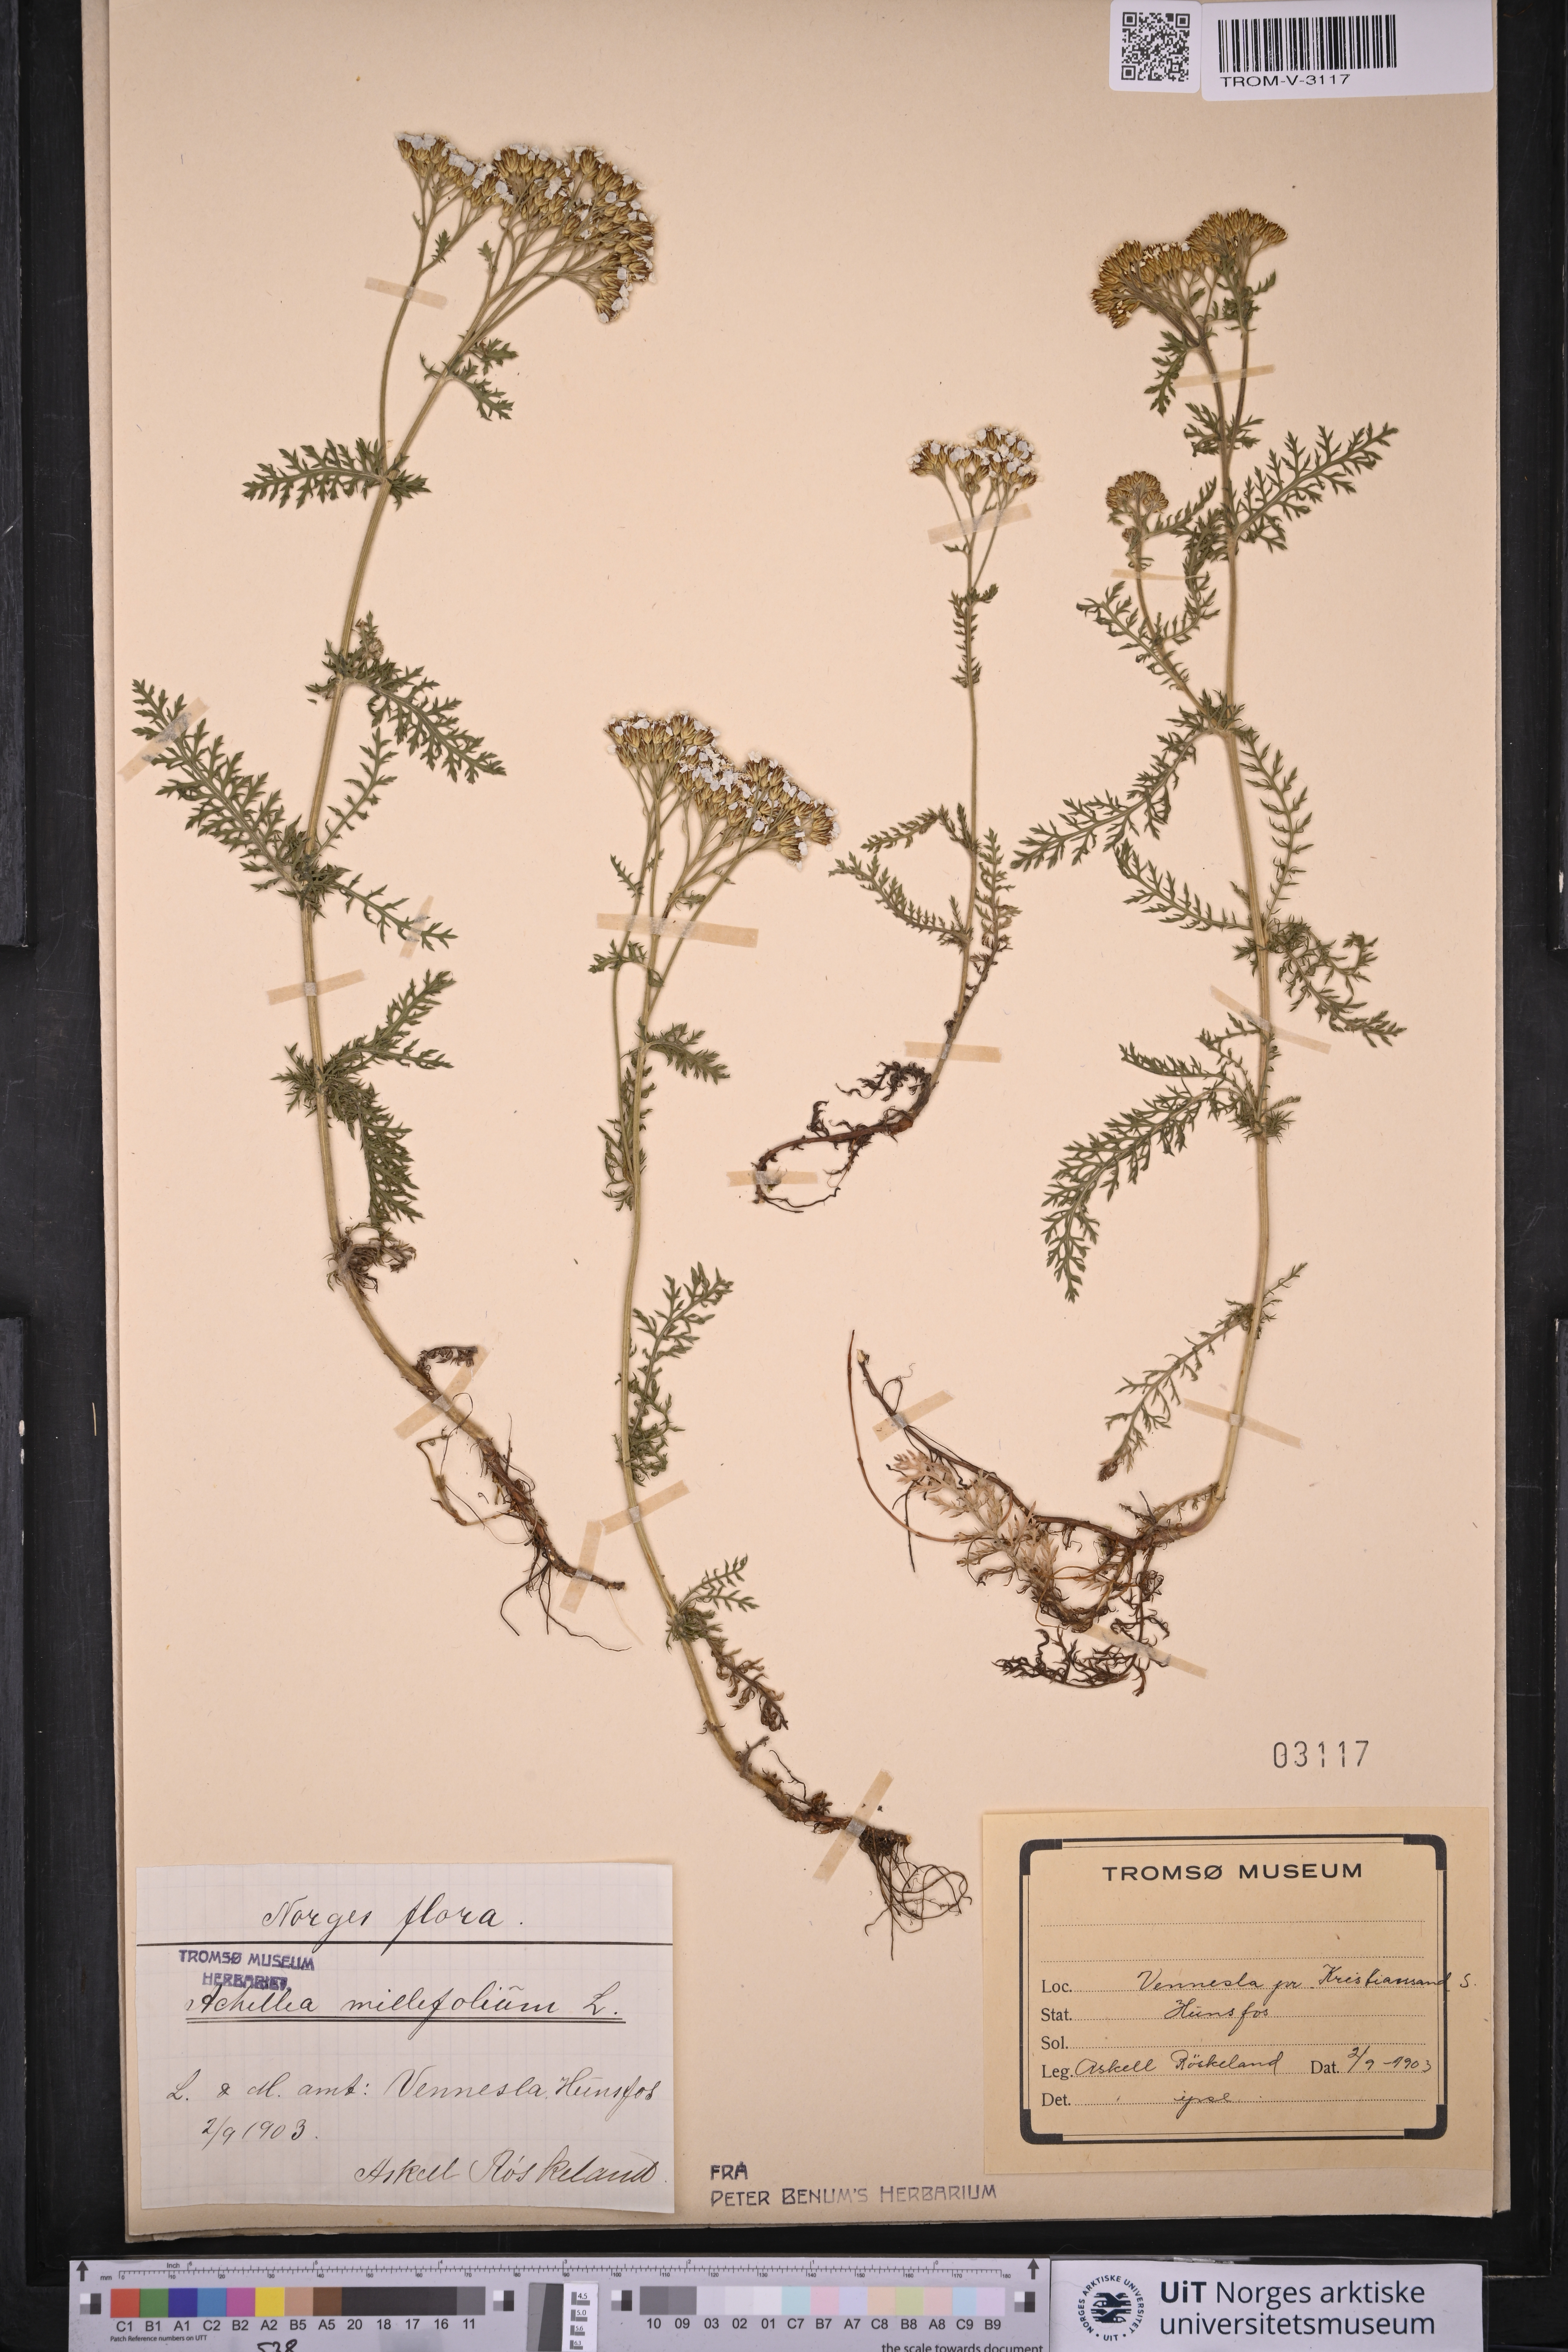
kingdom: Plantae
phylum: Tracheophyta
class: Magnoliopsida
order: Asterales
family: Asteraceae
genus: Achillea
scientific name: Achillea millefolium
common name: Yarrow
